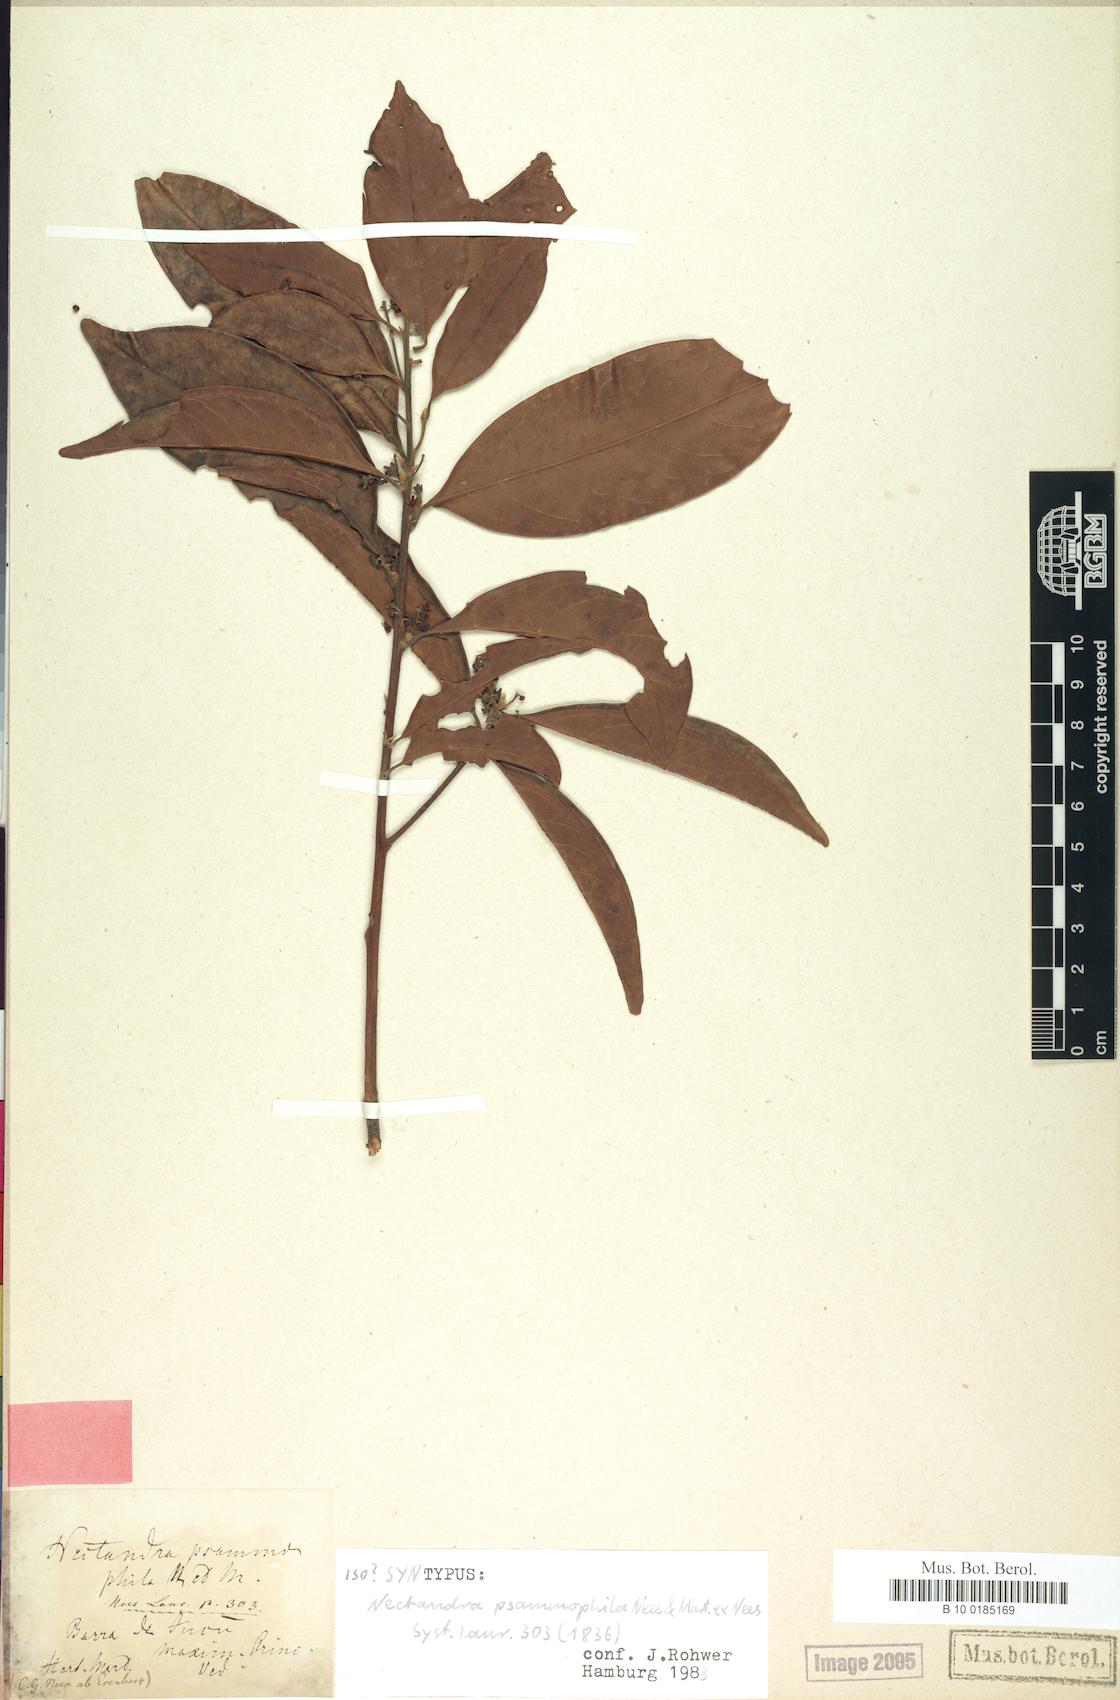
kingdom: Plantae
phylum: Tracheophyta
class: Magnoliopsida
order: Laurales
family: Lauraceae
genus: Nectandra
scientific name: Nectandra psammophila
